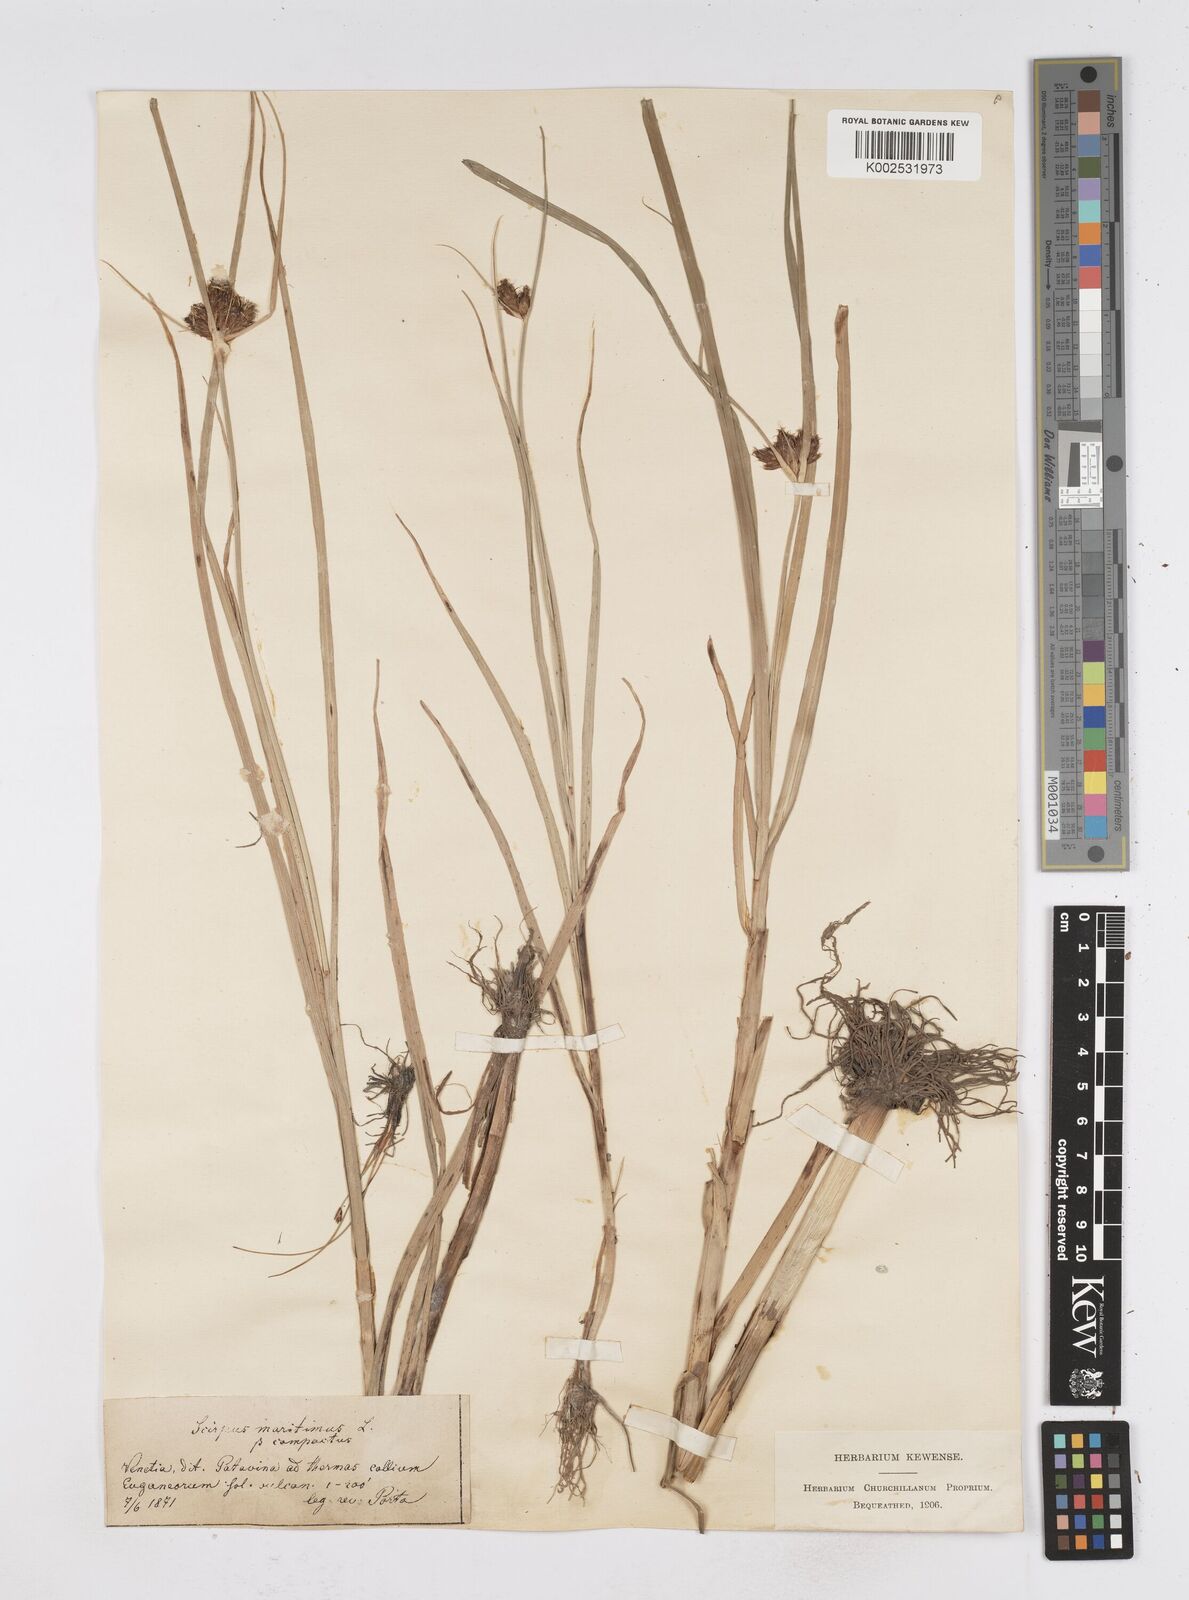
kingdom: Plantae
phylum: Tracheophyta
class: Liliopsida
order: Poales
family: Cyperaceae
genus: Bolboschoenus
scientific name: Bolboschoenus maritimus
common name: Sea club-rush
